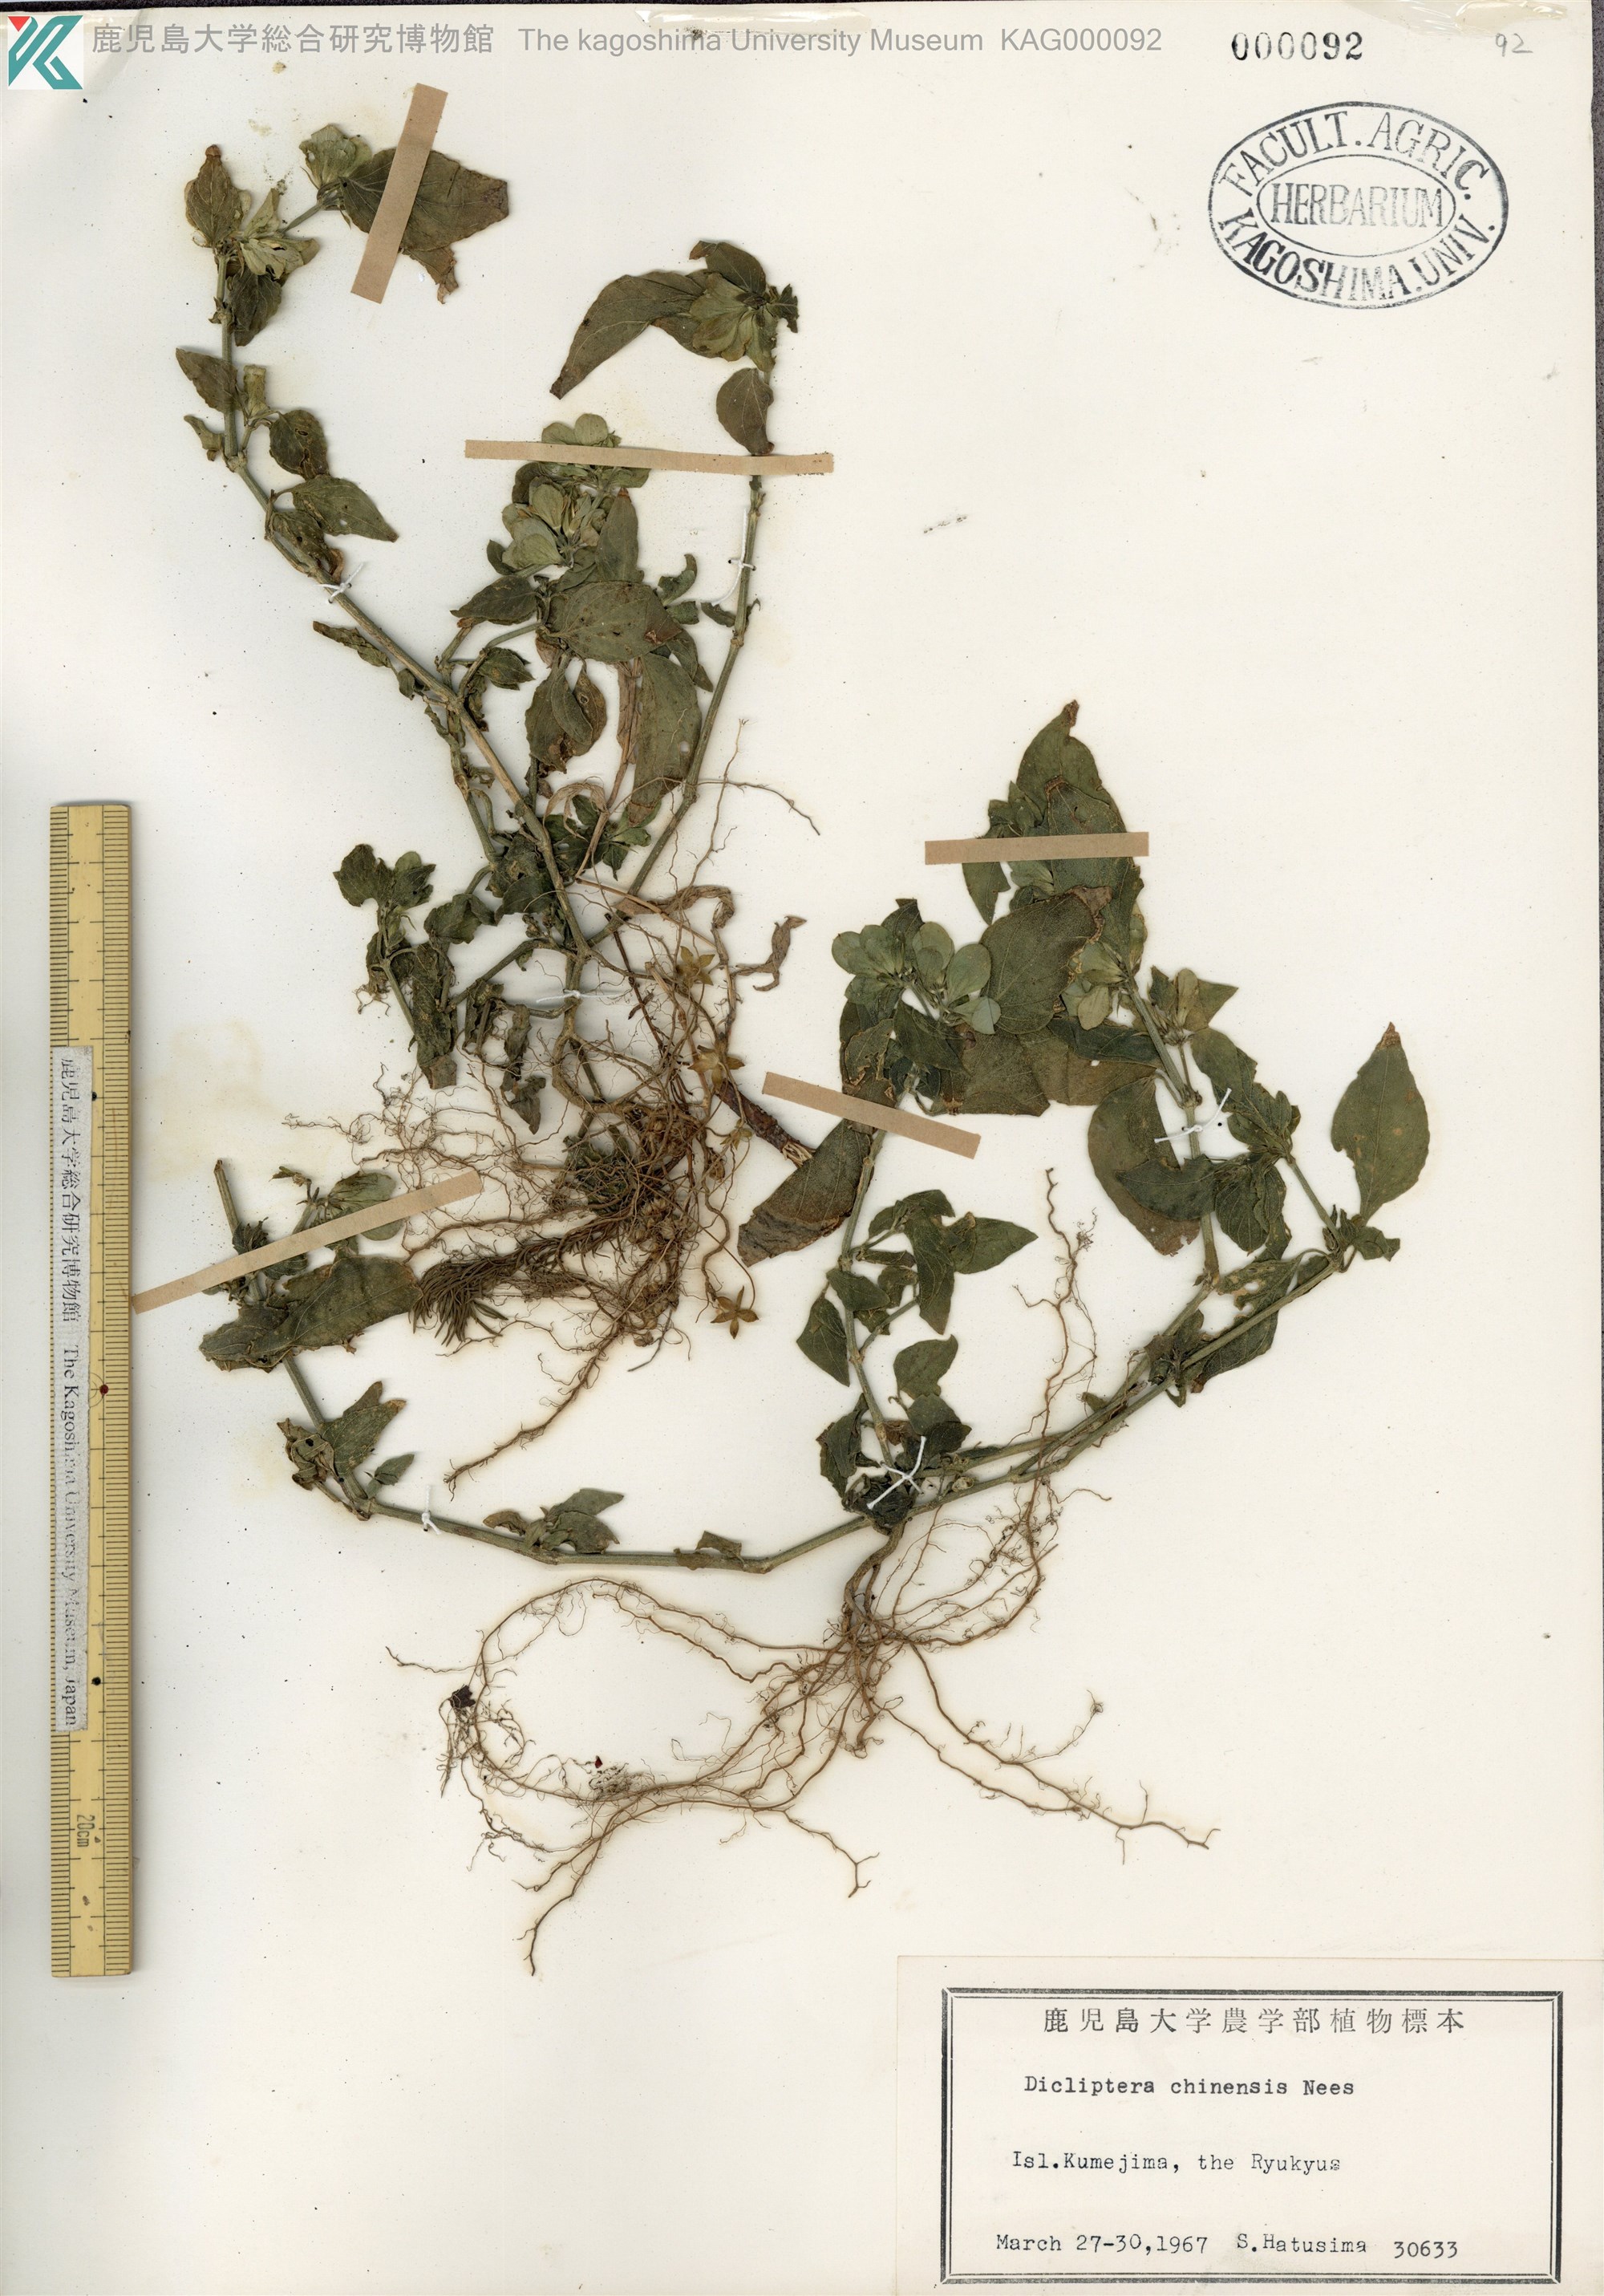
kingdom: Plantae
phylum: Tracheophyta
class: Magnoliopsida
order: Lamiales
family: Acanthaceae
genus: Dicliptera
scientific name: Dicliptera chinensis
